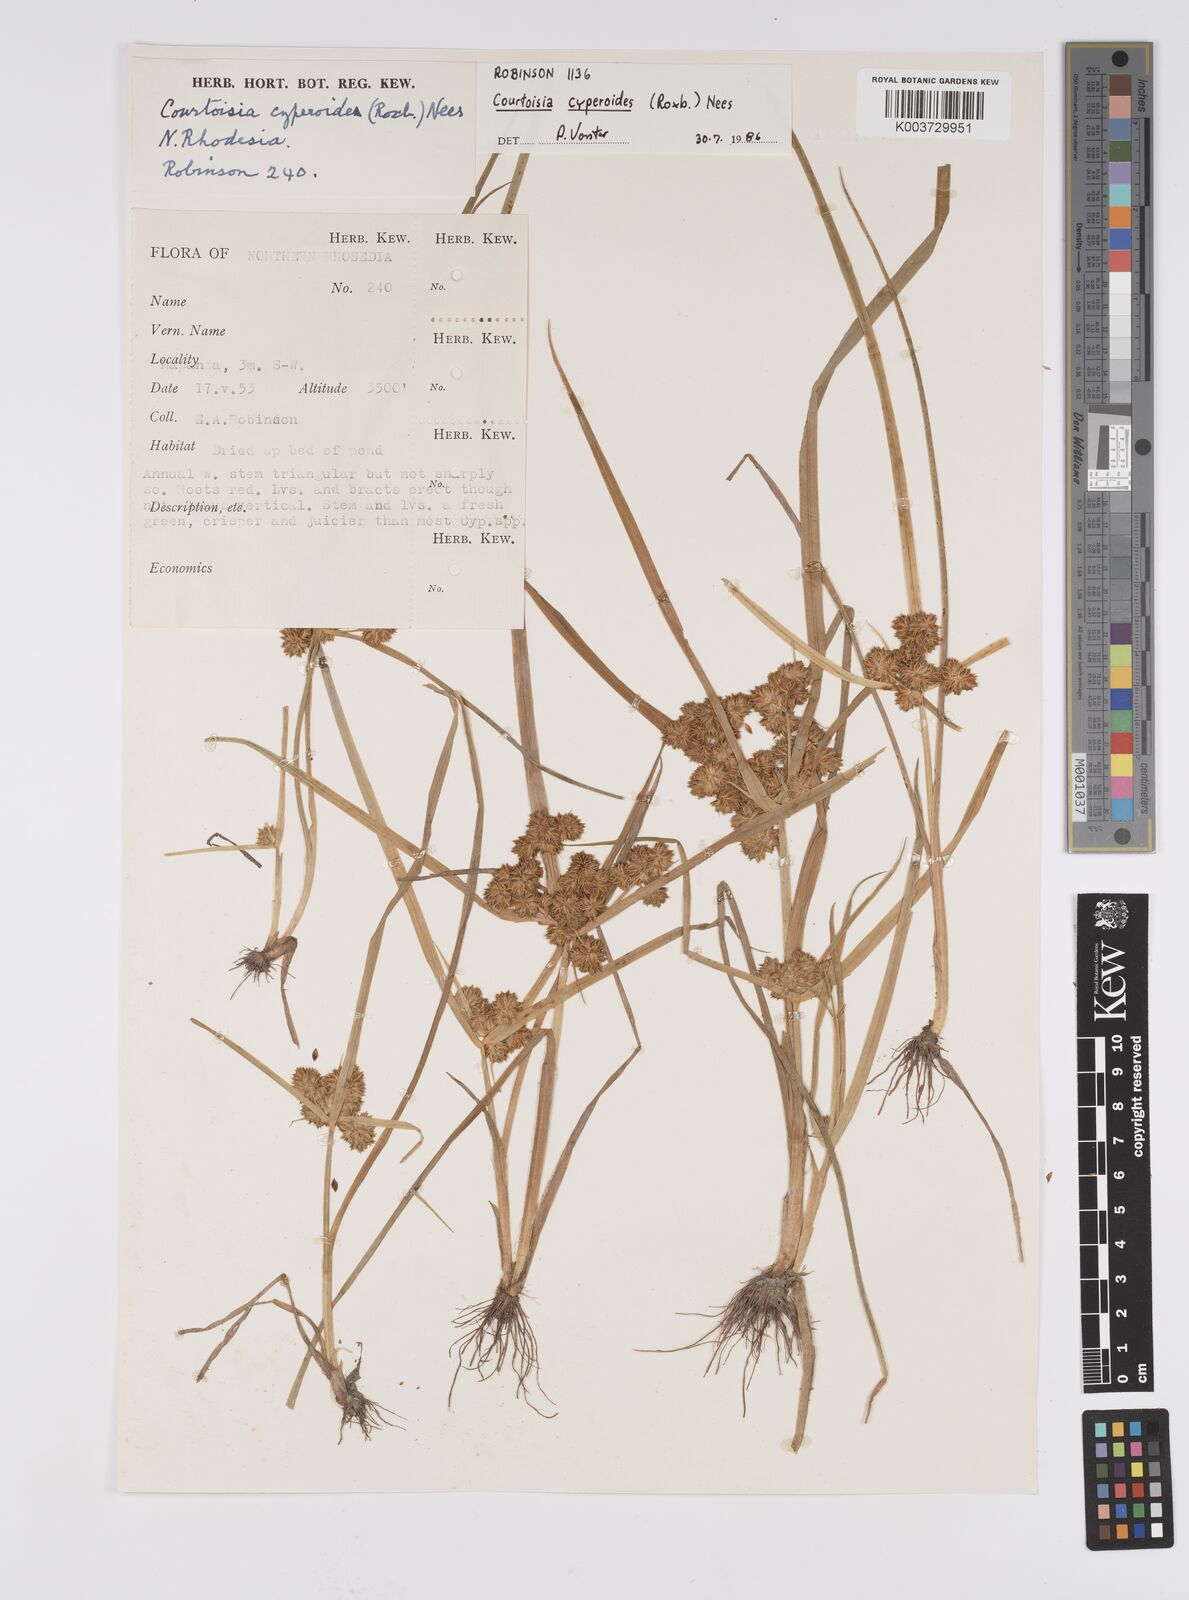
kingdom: Plantae
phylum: Tracheophyta
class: Liliopsida
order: Poales
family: Cyperaceae
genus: Cyperus
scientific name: Cyperus cyperoides
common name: Pacific island flat sedge
